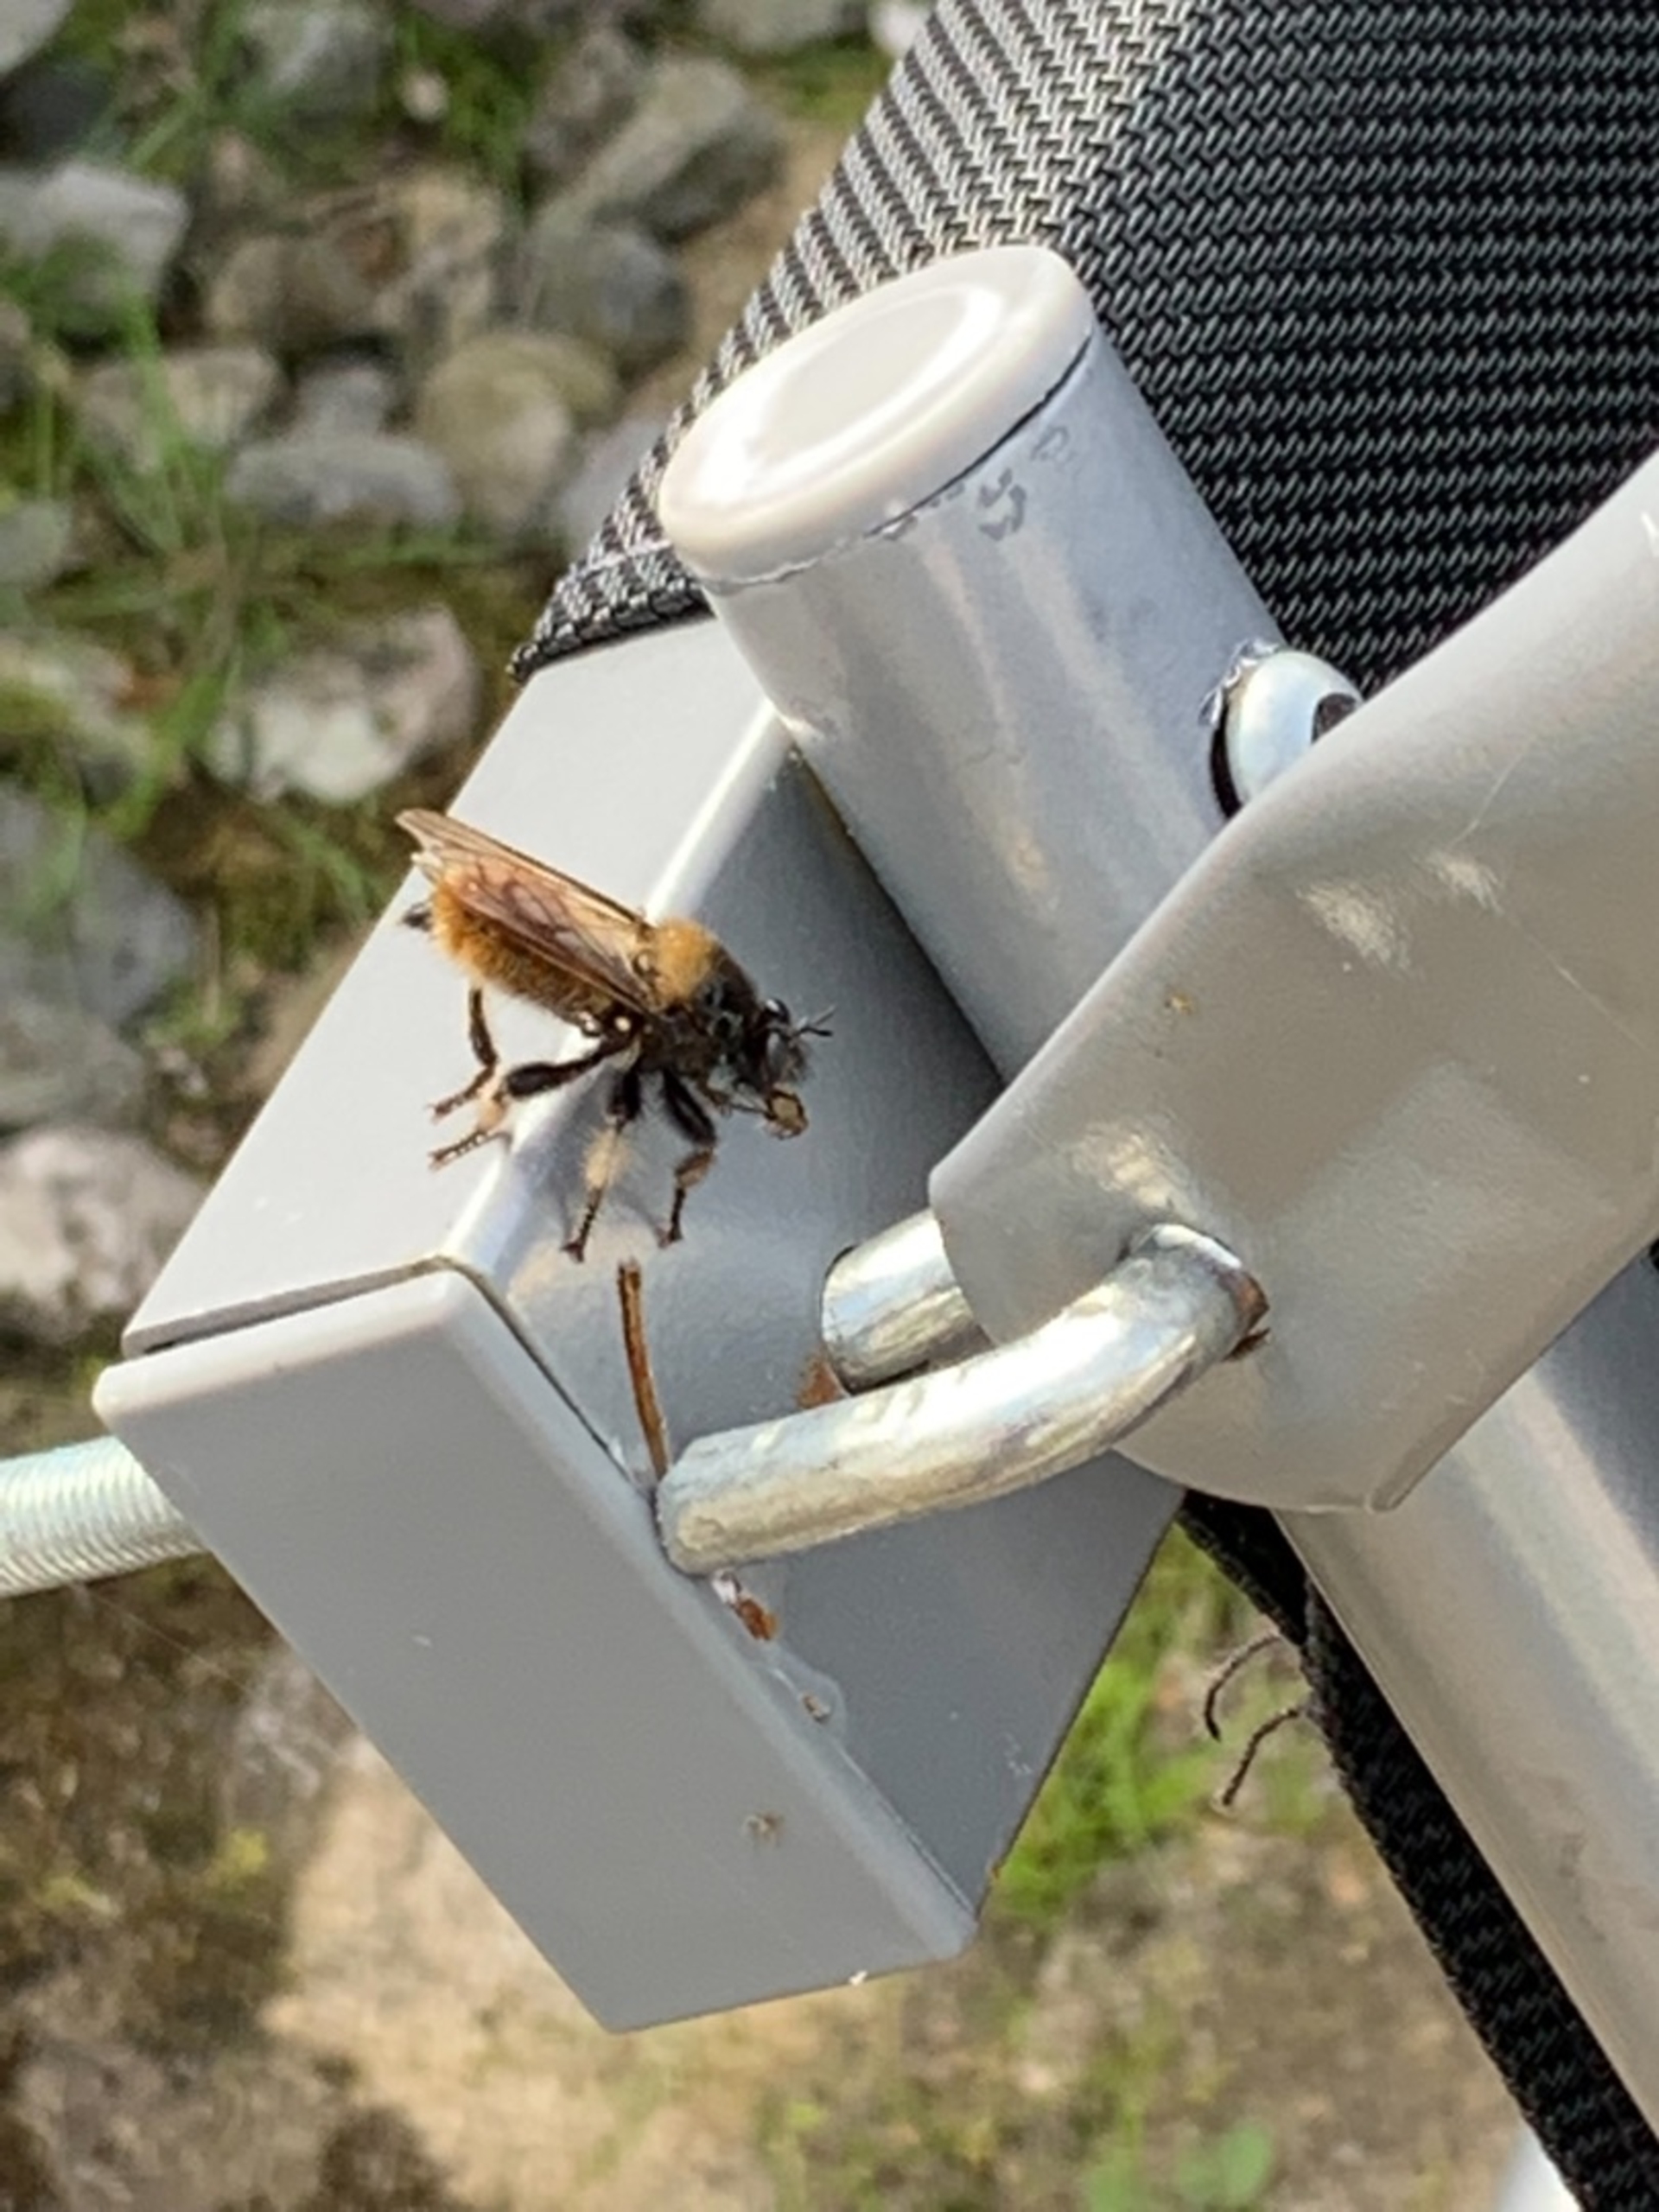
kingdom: Animalia
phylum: Arthropoda
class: Insecta
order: Diptera
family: Asilidae
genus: Laphria
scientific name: Laphria flava
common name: Gul vedrovflue
